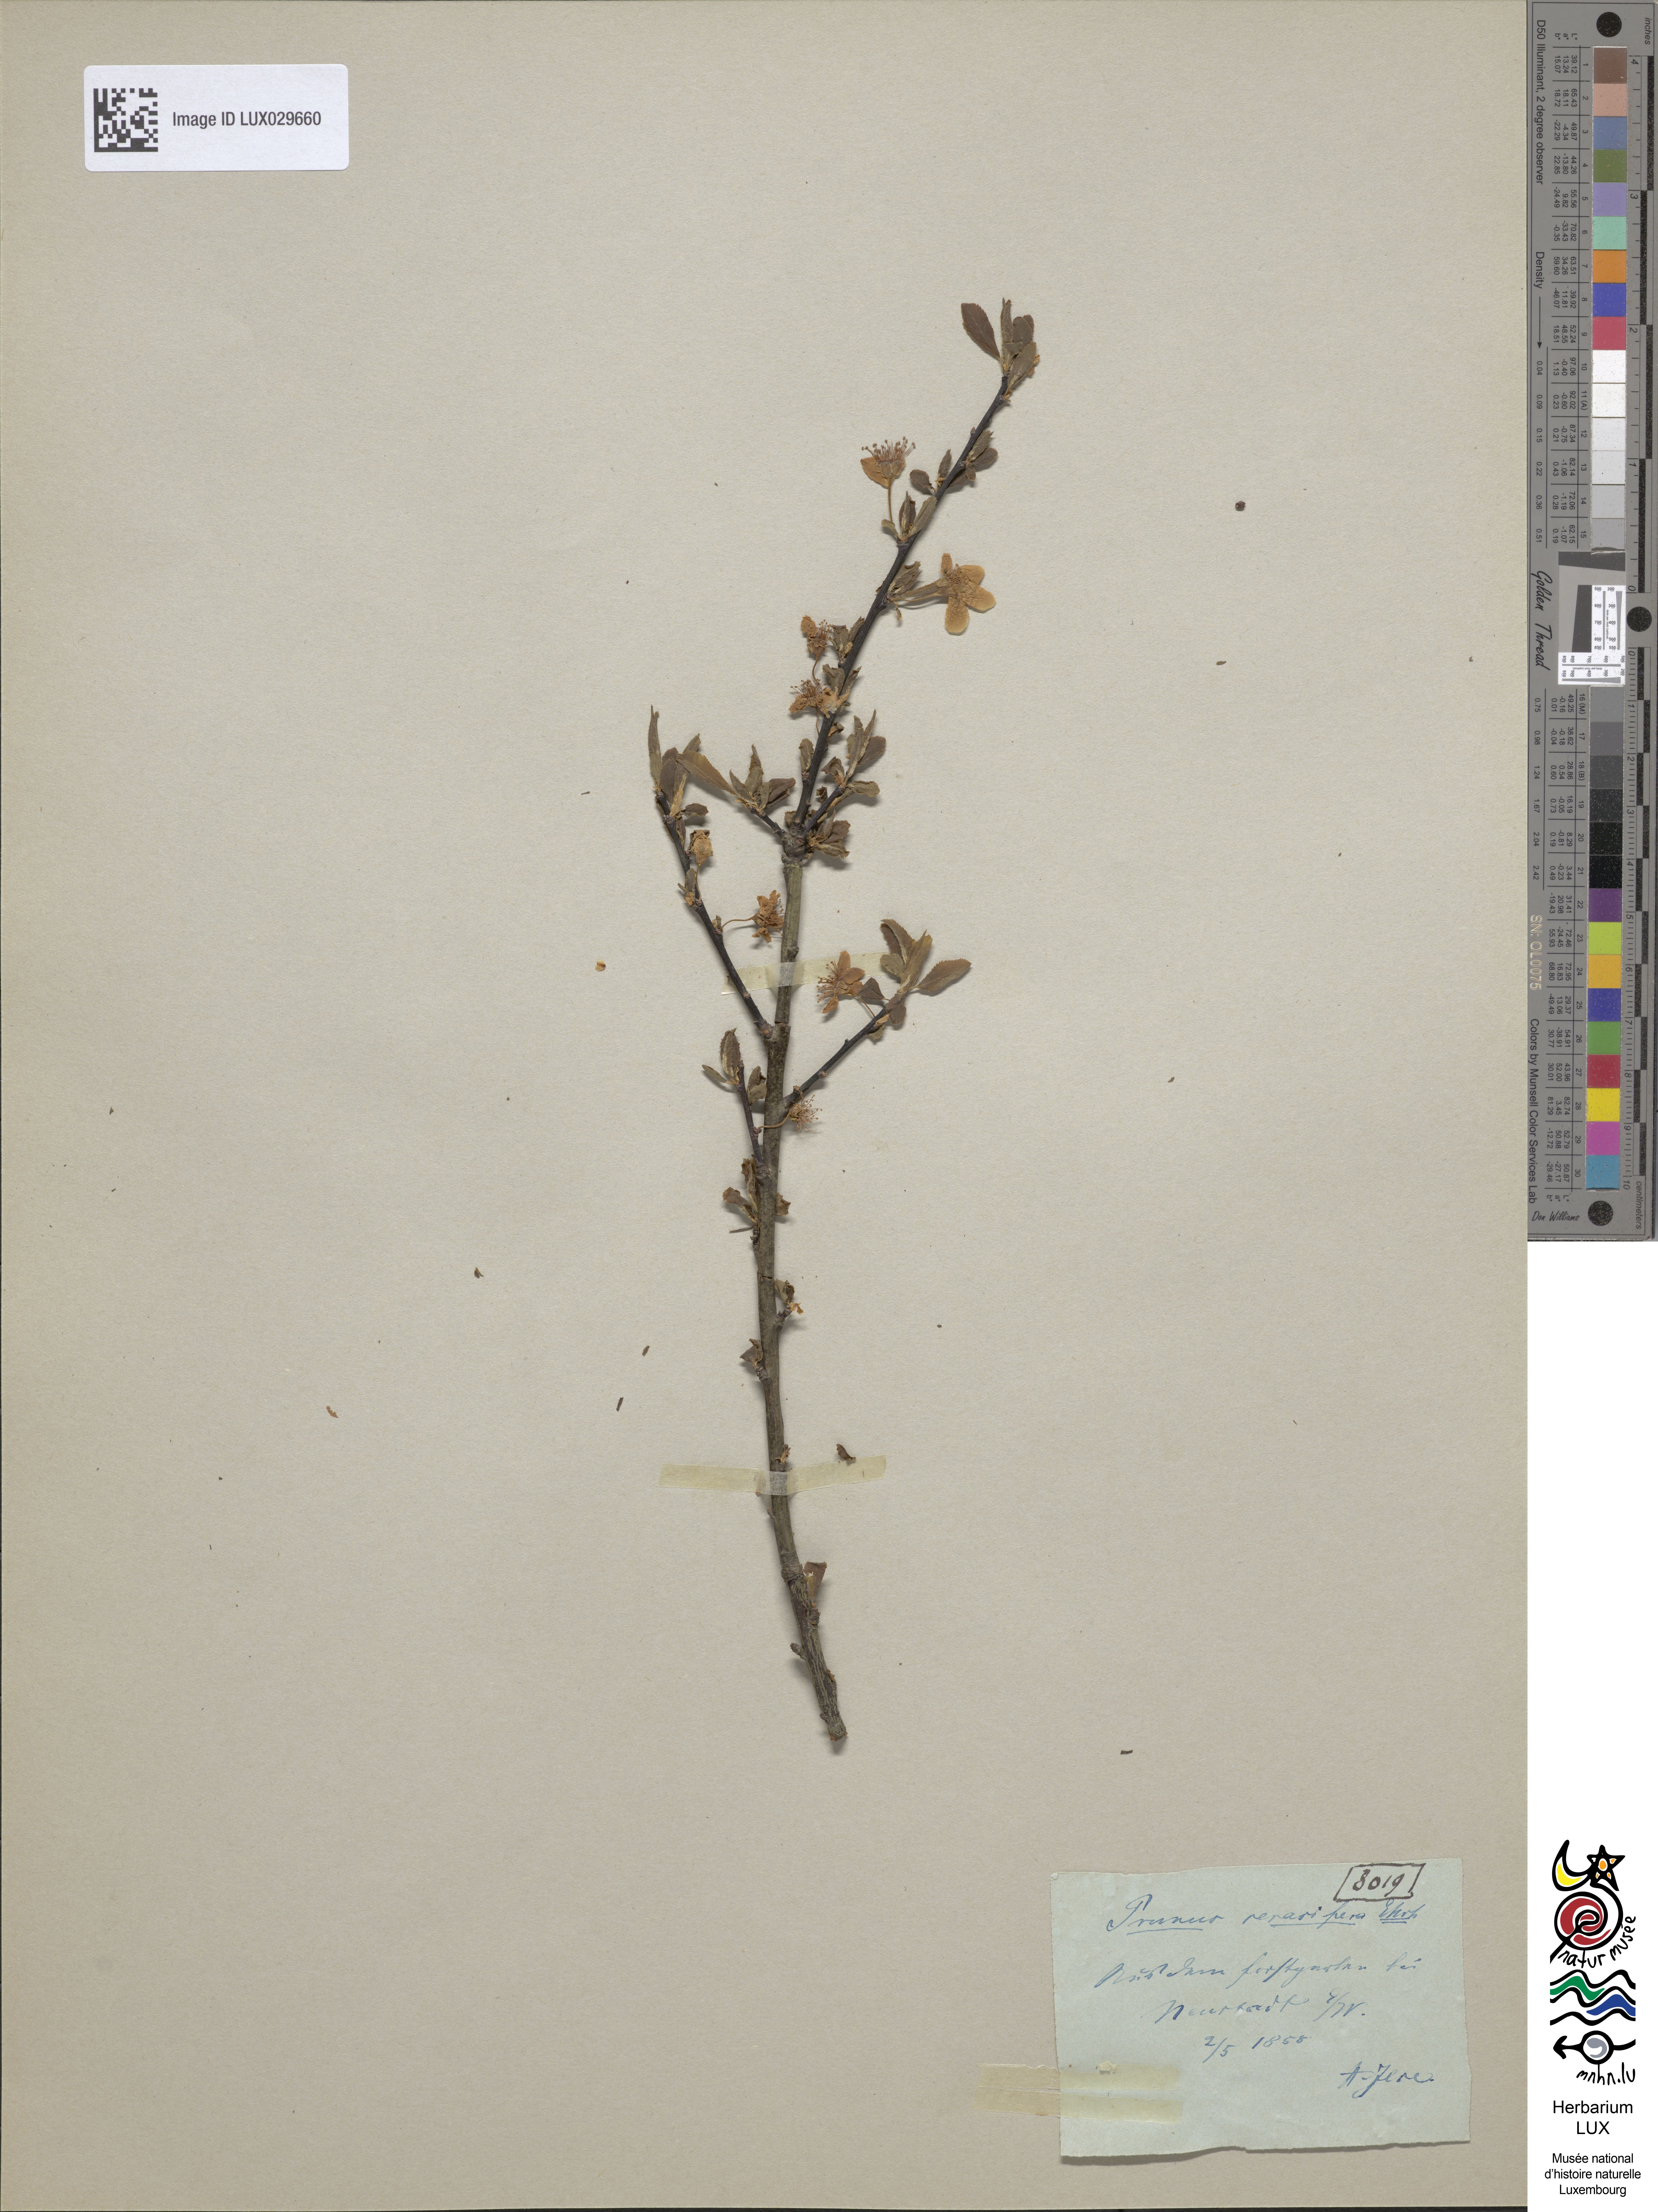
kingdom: Plantae
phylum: Tracheophyta
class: Magnoliopsida
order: Rosales
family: Rosaceae
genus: Prunus
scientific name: Prunus cerasifera
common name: Cherry plum
